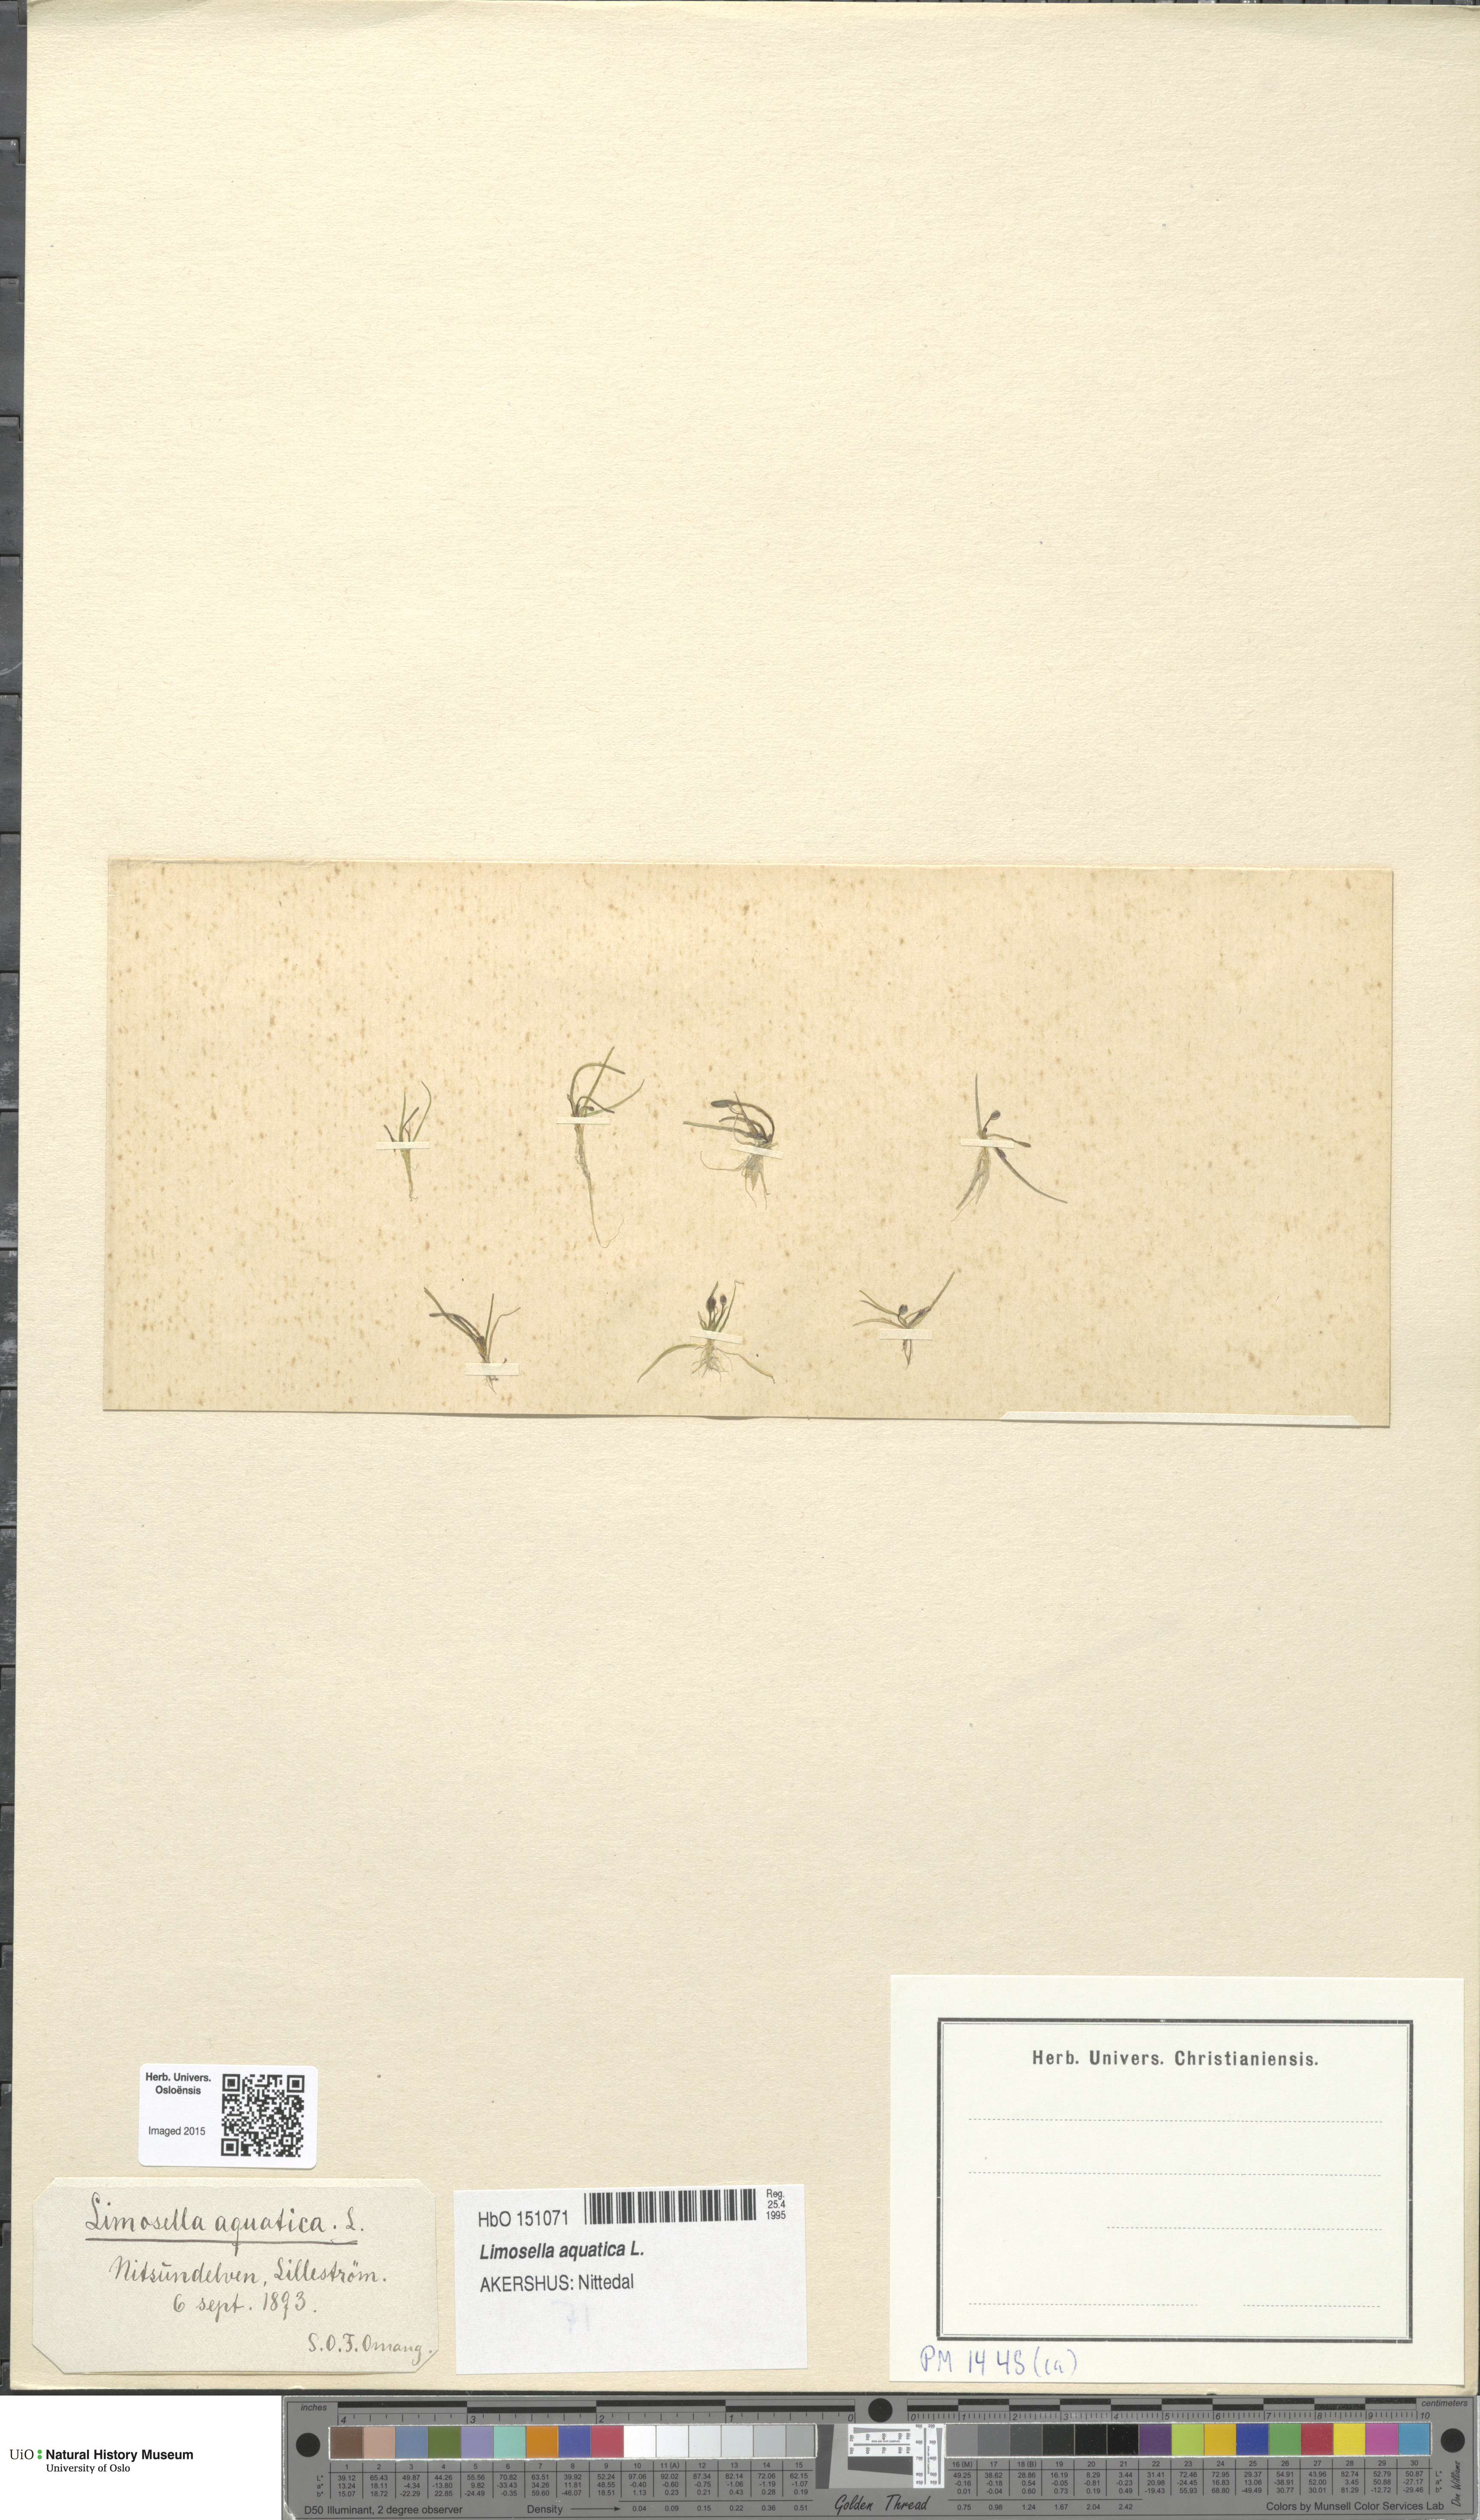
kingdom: Plantae
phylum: Tracheophyta
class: Magnoliopsida
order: Lamiales
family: Scrophulariaceae
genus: Limosella
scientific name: Limosella aquatica
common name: Mudwort
